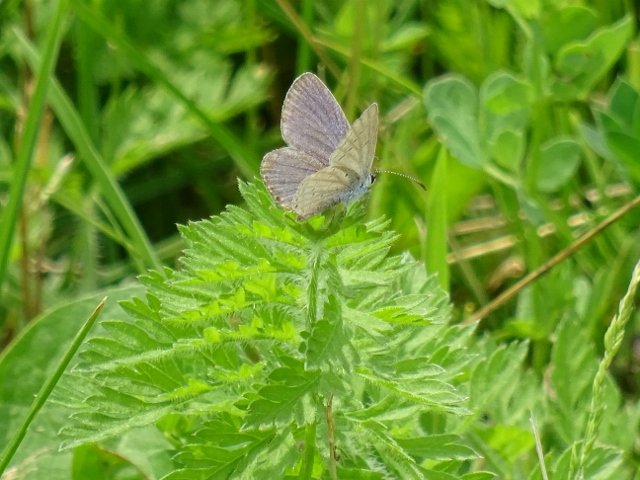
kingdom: Animalia
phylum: Arthropoda
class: Insecta
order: Lepidoptera
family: Lycaenidae
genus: Elkalyce
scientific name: Elkalyce comyntas
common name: Eastern Tailed-Blue
